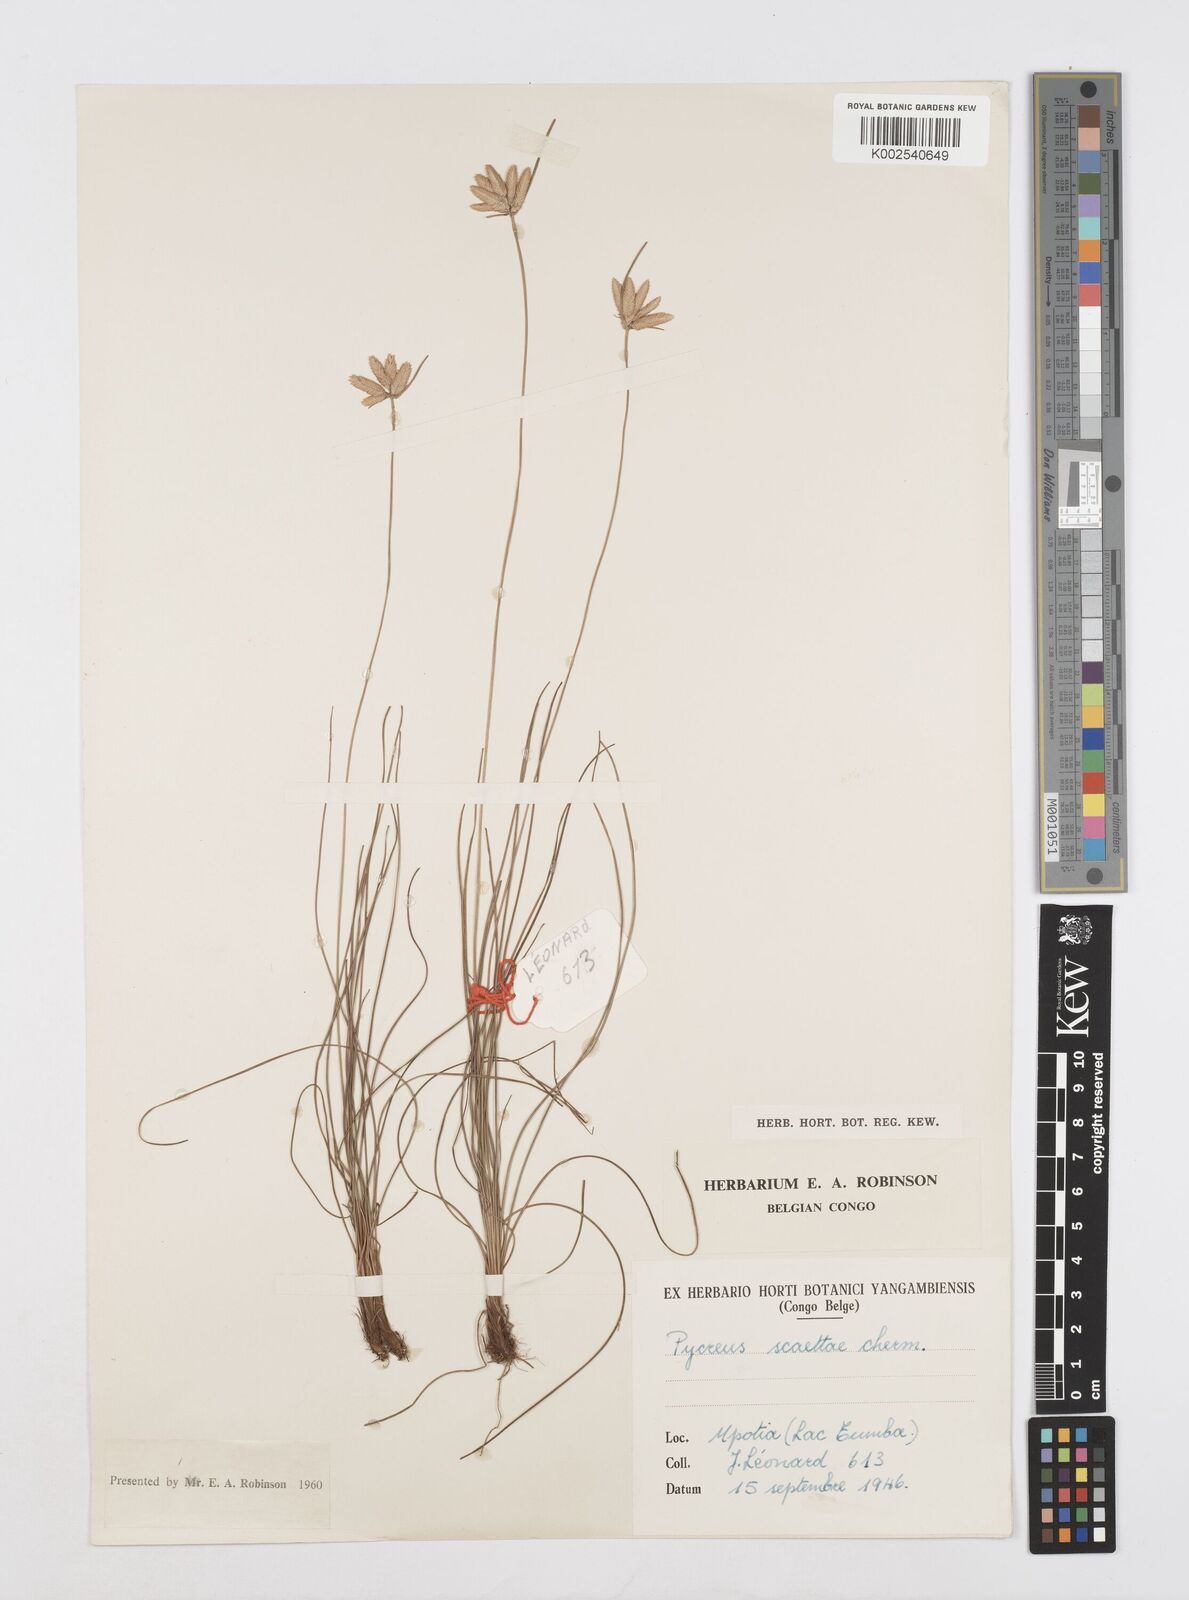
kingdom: Plantae
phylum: Tracheophyta
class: Liliopsida
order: Poales
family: Cyperaceae
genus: Cyperus
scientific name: Cyperus scaettae
